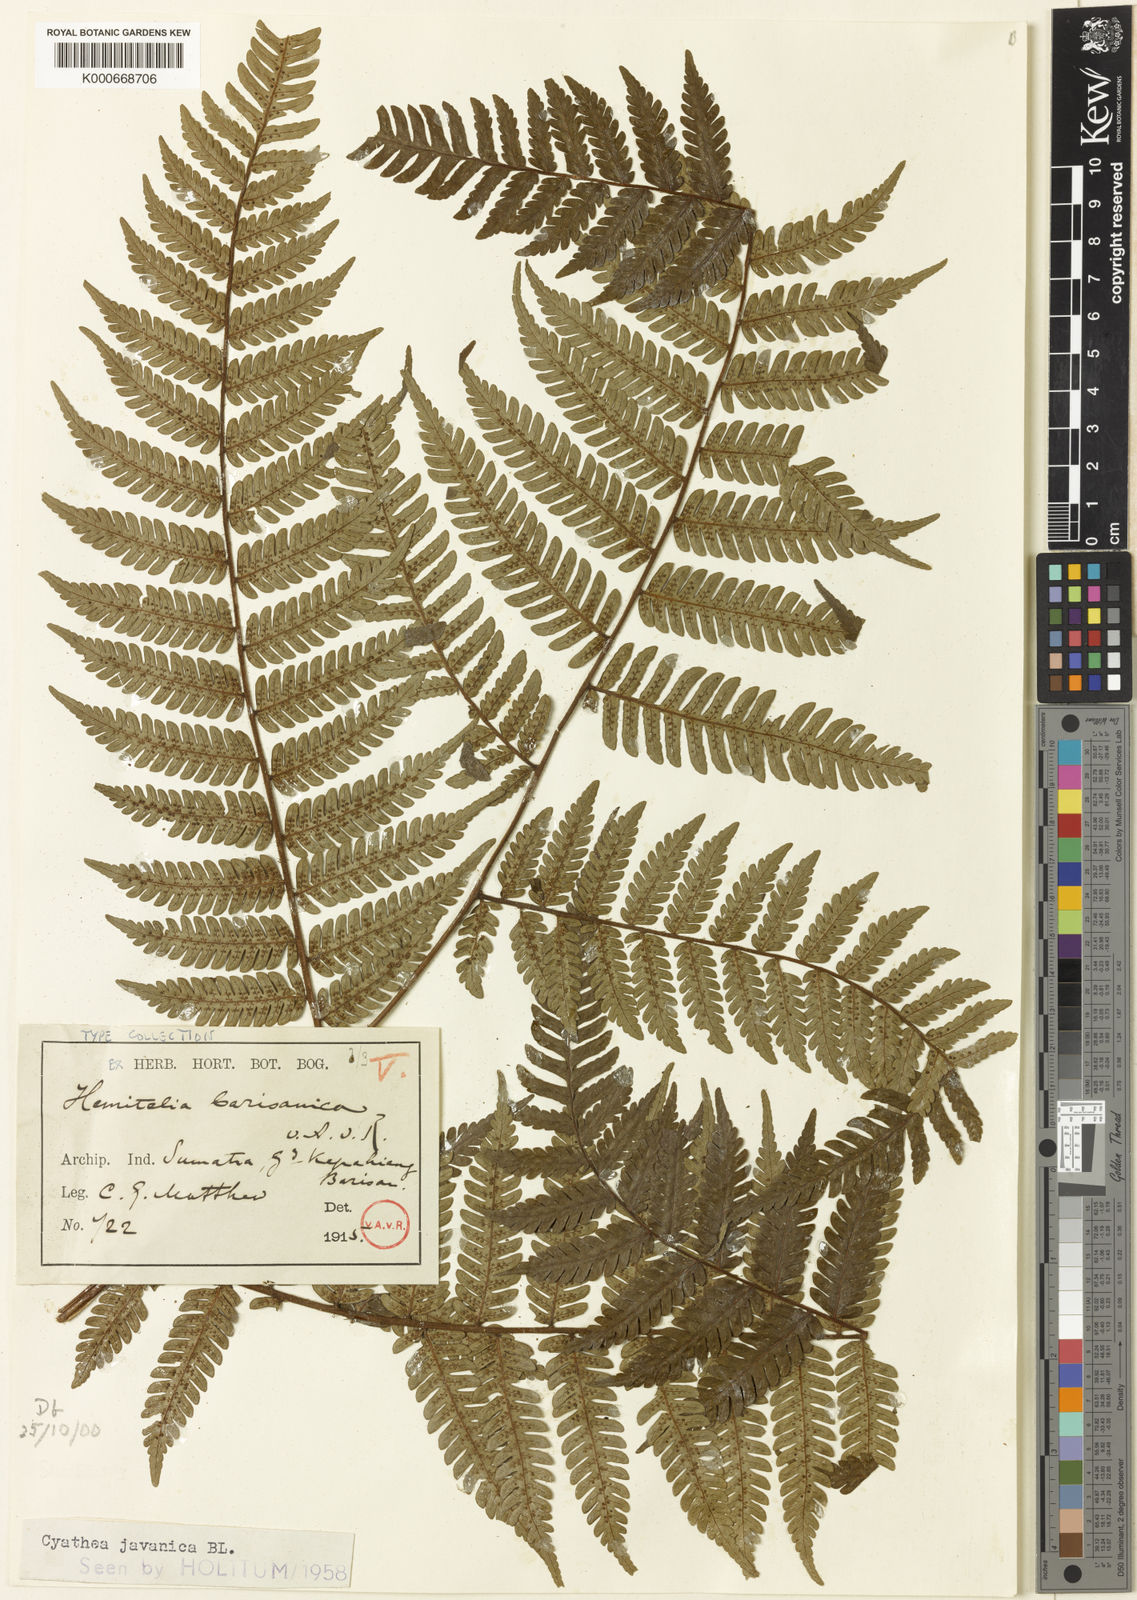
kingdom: Plantae
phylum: Tracheophyta
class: Polypodiopsida
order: Cyatheales
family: Cyatheaceae
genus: Alsophila
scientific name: Alsophila javanica
